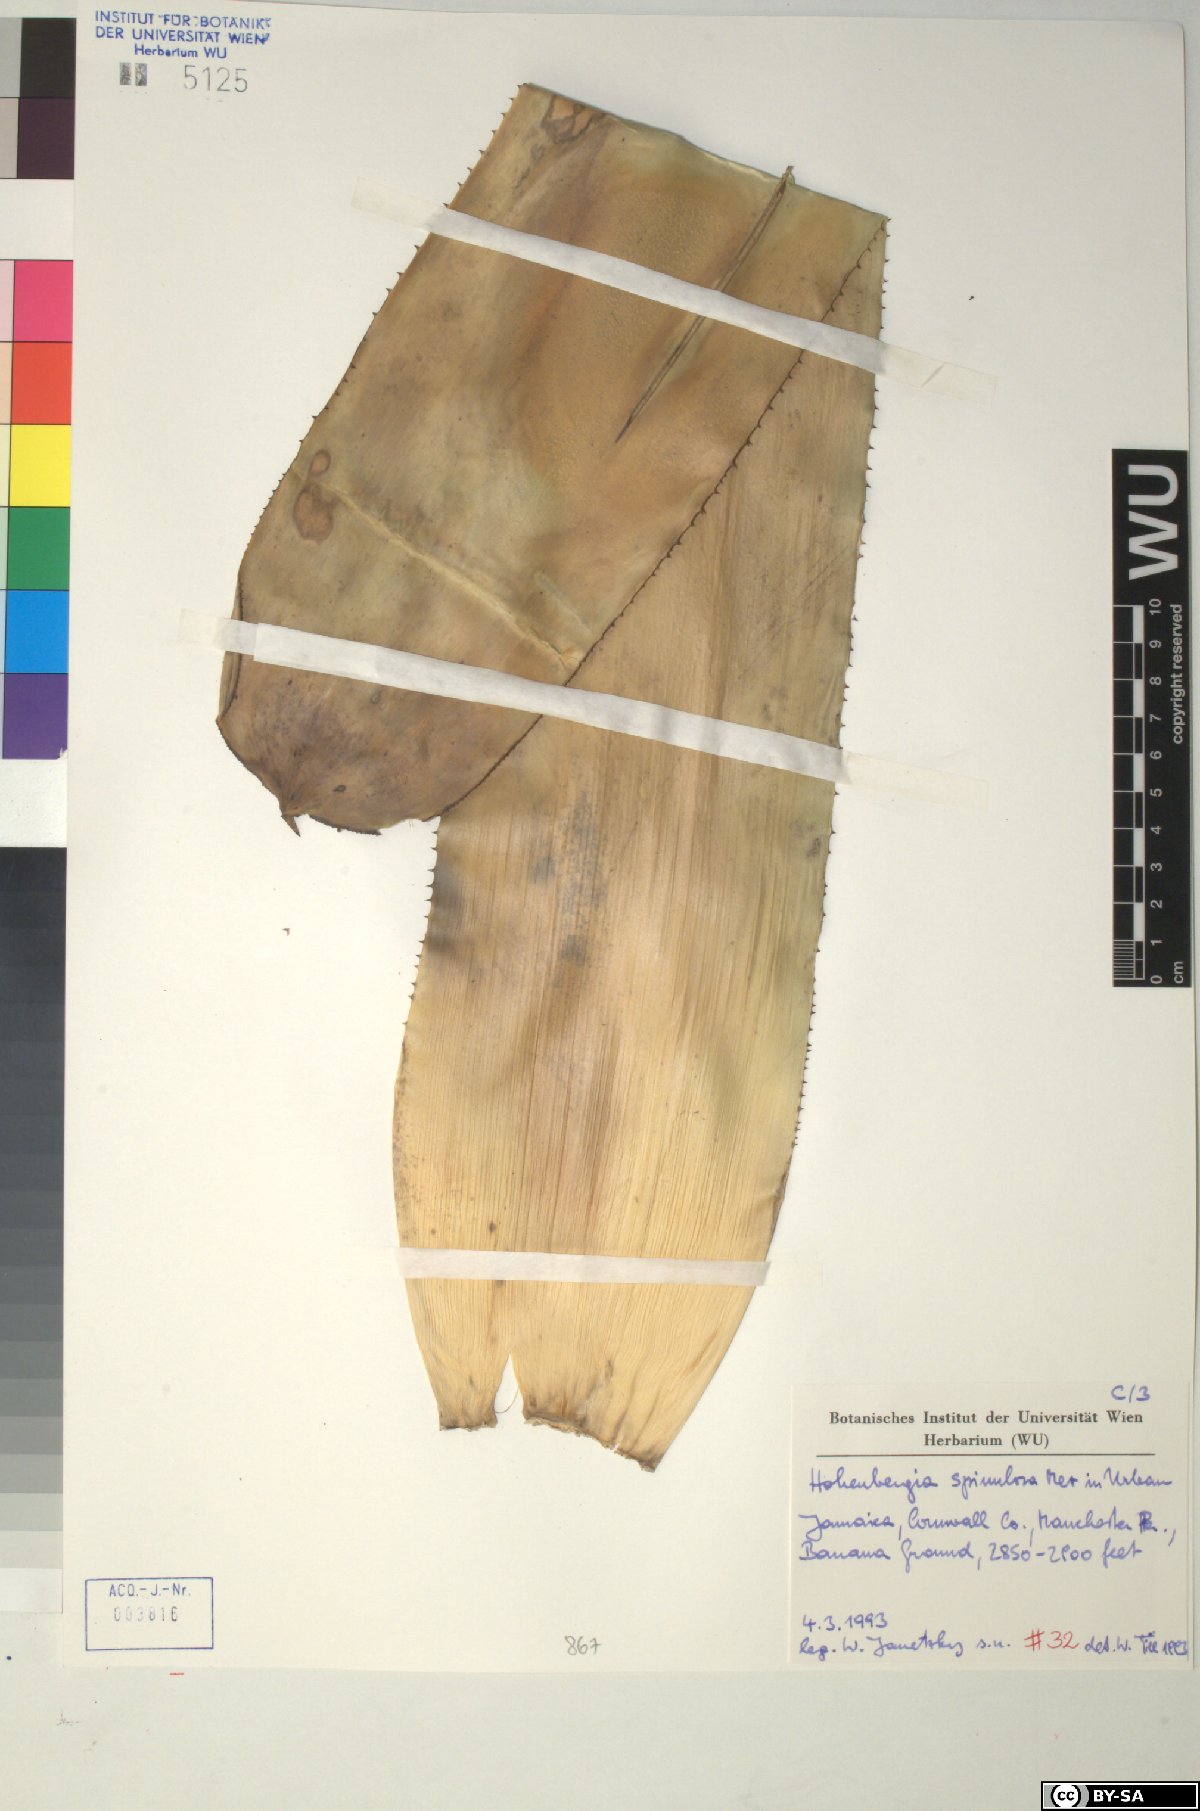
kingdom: Plantae
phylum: Tracheophyta
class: Liliopsida
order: Poales
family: Bromeliaceae
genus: Wittmackia
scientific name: Wittmackia spinulosa
